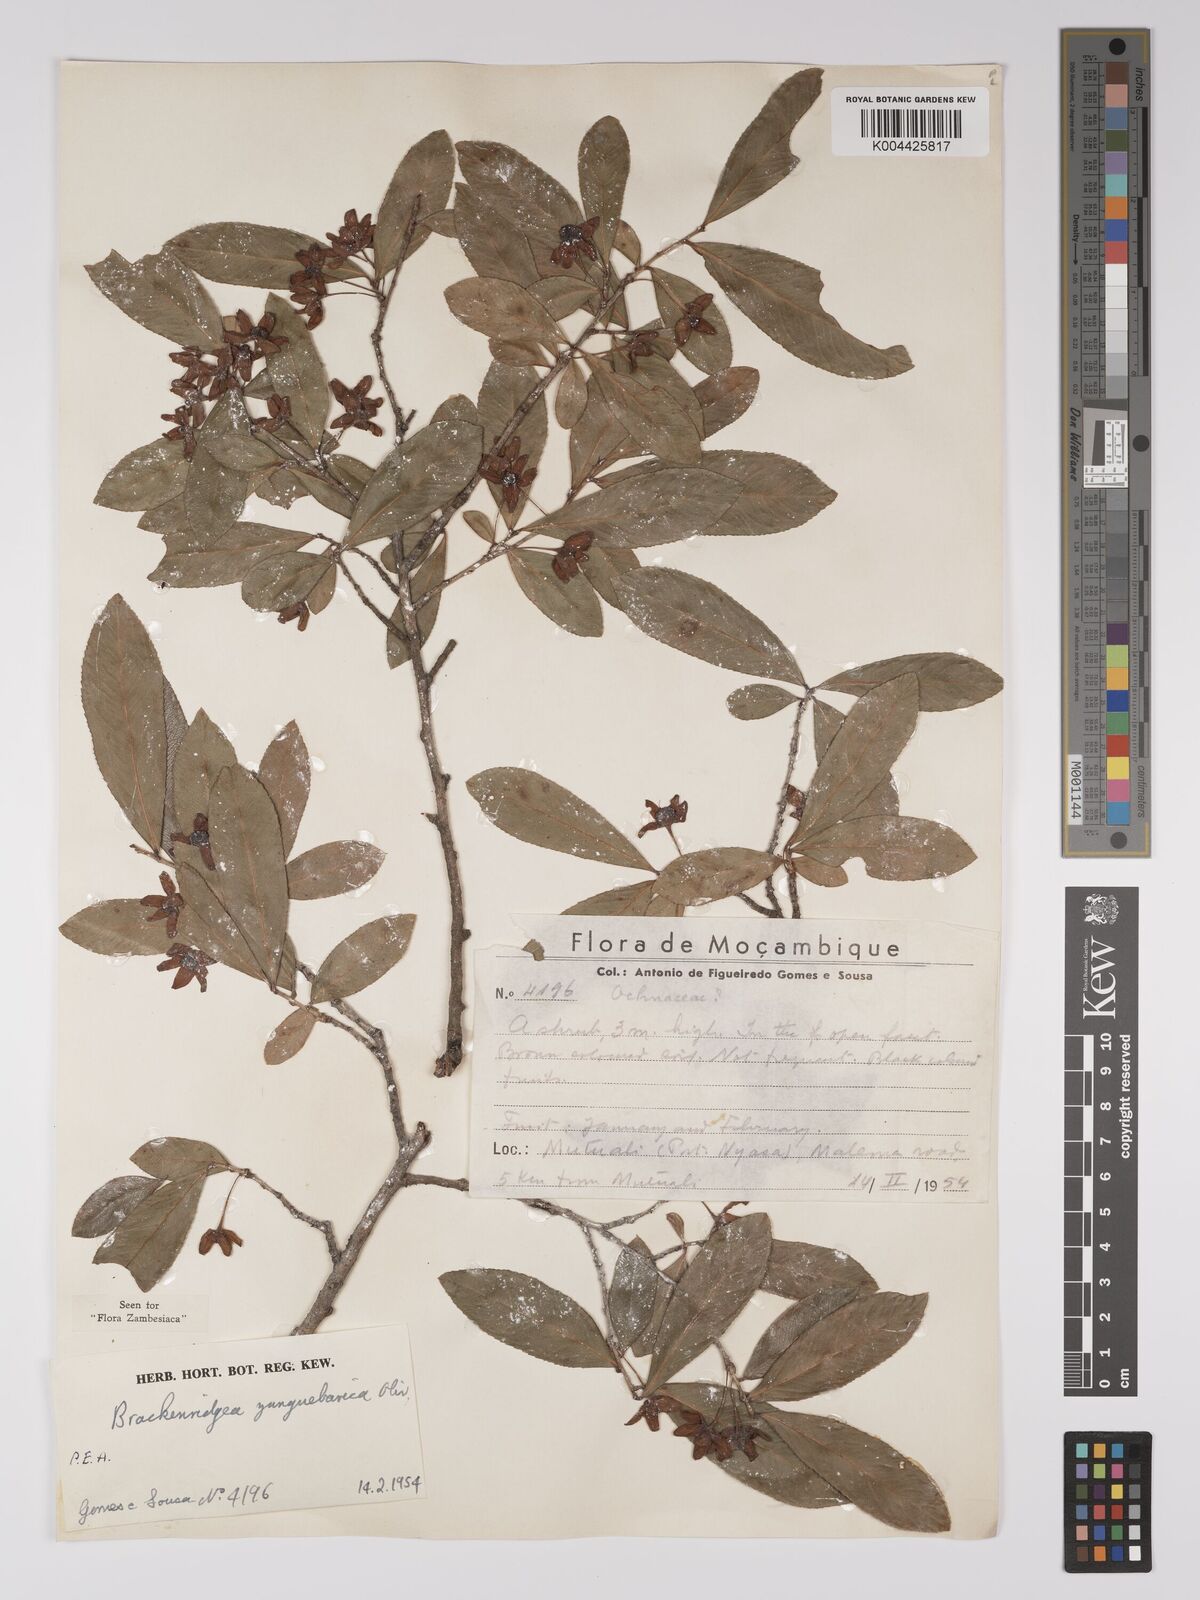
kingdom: Plantae
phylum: Tracheophyta
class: Magnoliopsida
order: Malpighiales
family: Ochnaceae
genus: Brackenridgea
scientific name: Brackenridgea zanguebarica
